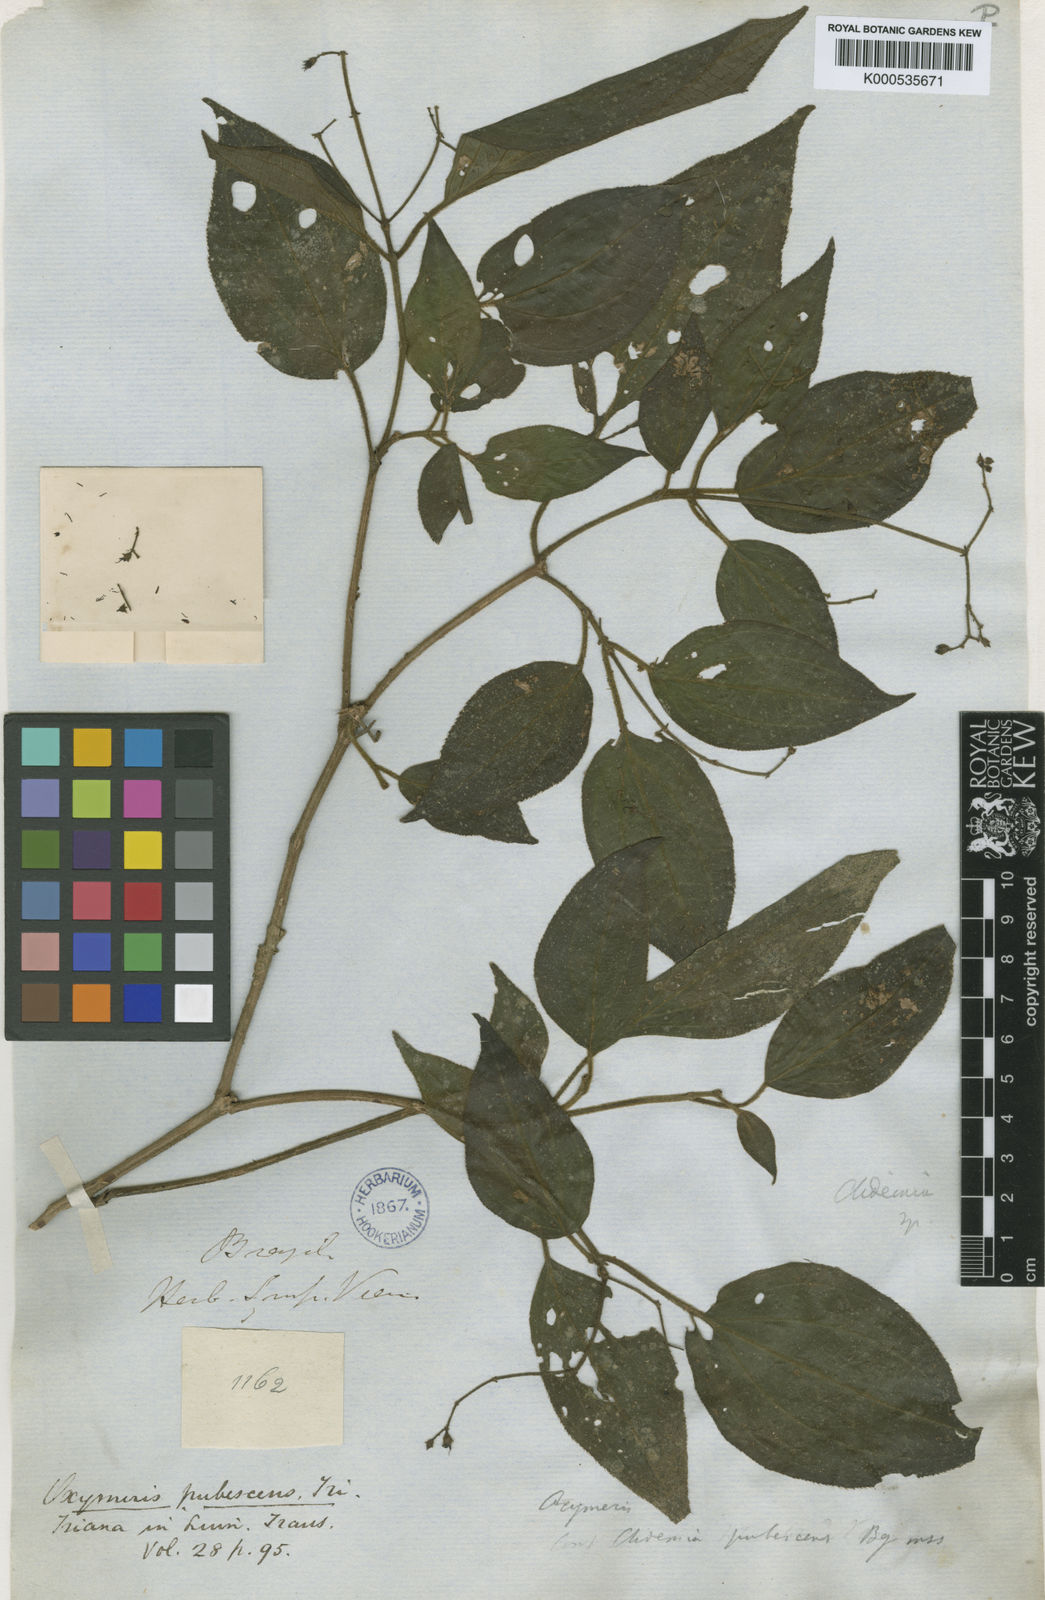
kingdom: Plantae
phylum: Tracheophyta
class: Magnoliopsida
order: Myrtales
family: Melastomataceae
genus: Miconia
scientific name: Miconia strigilliflora
